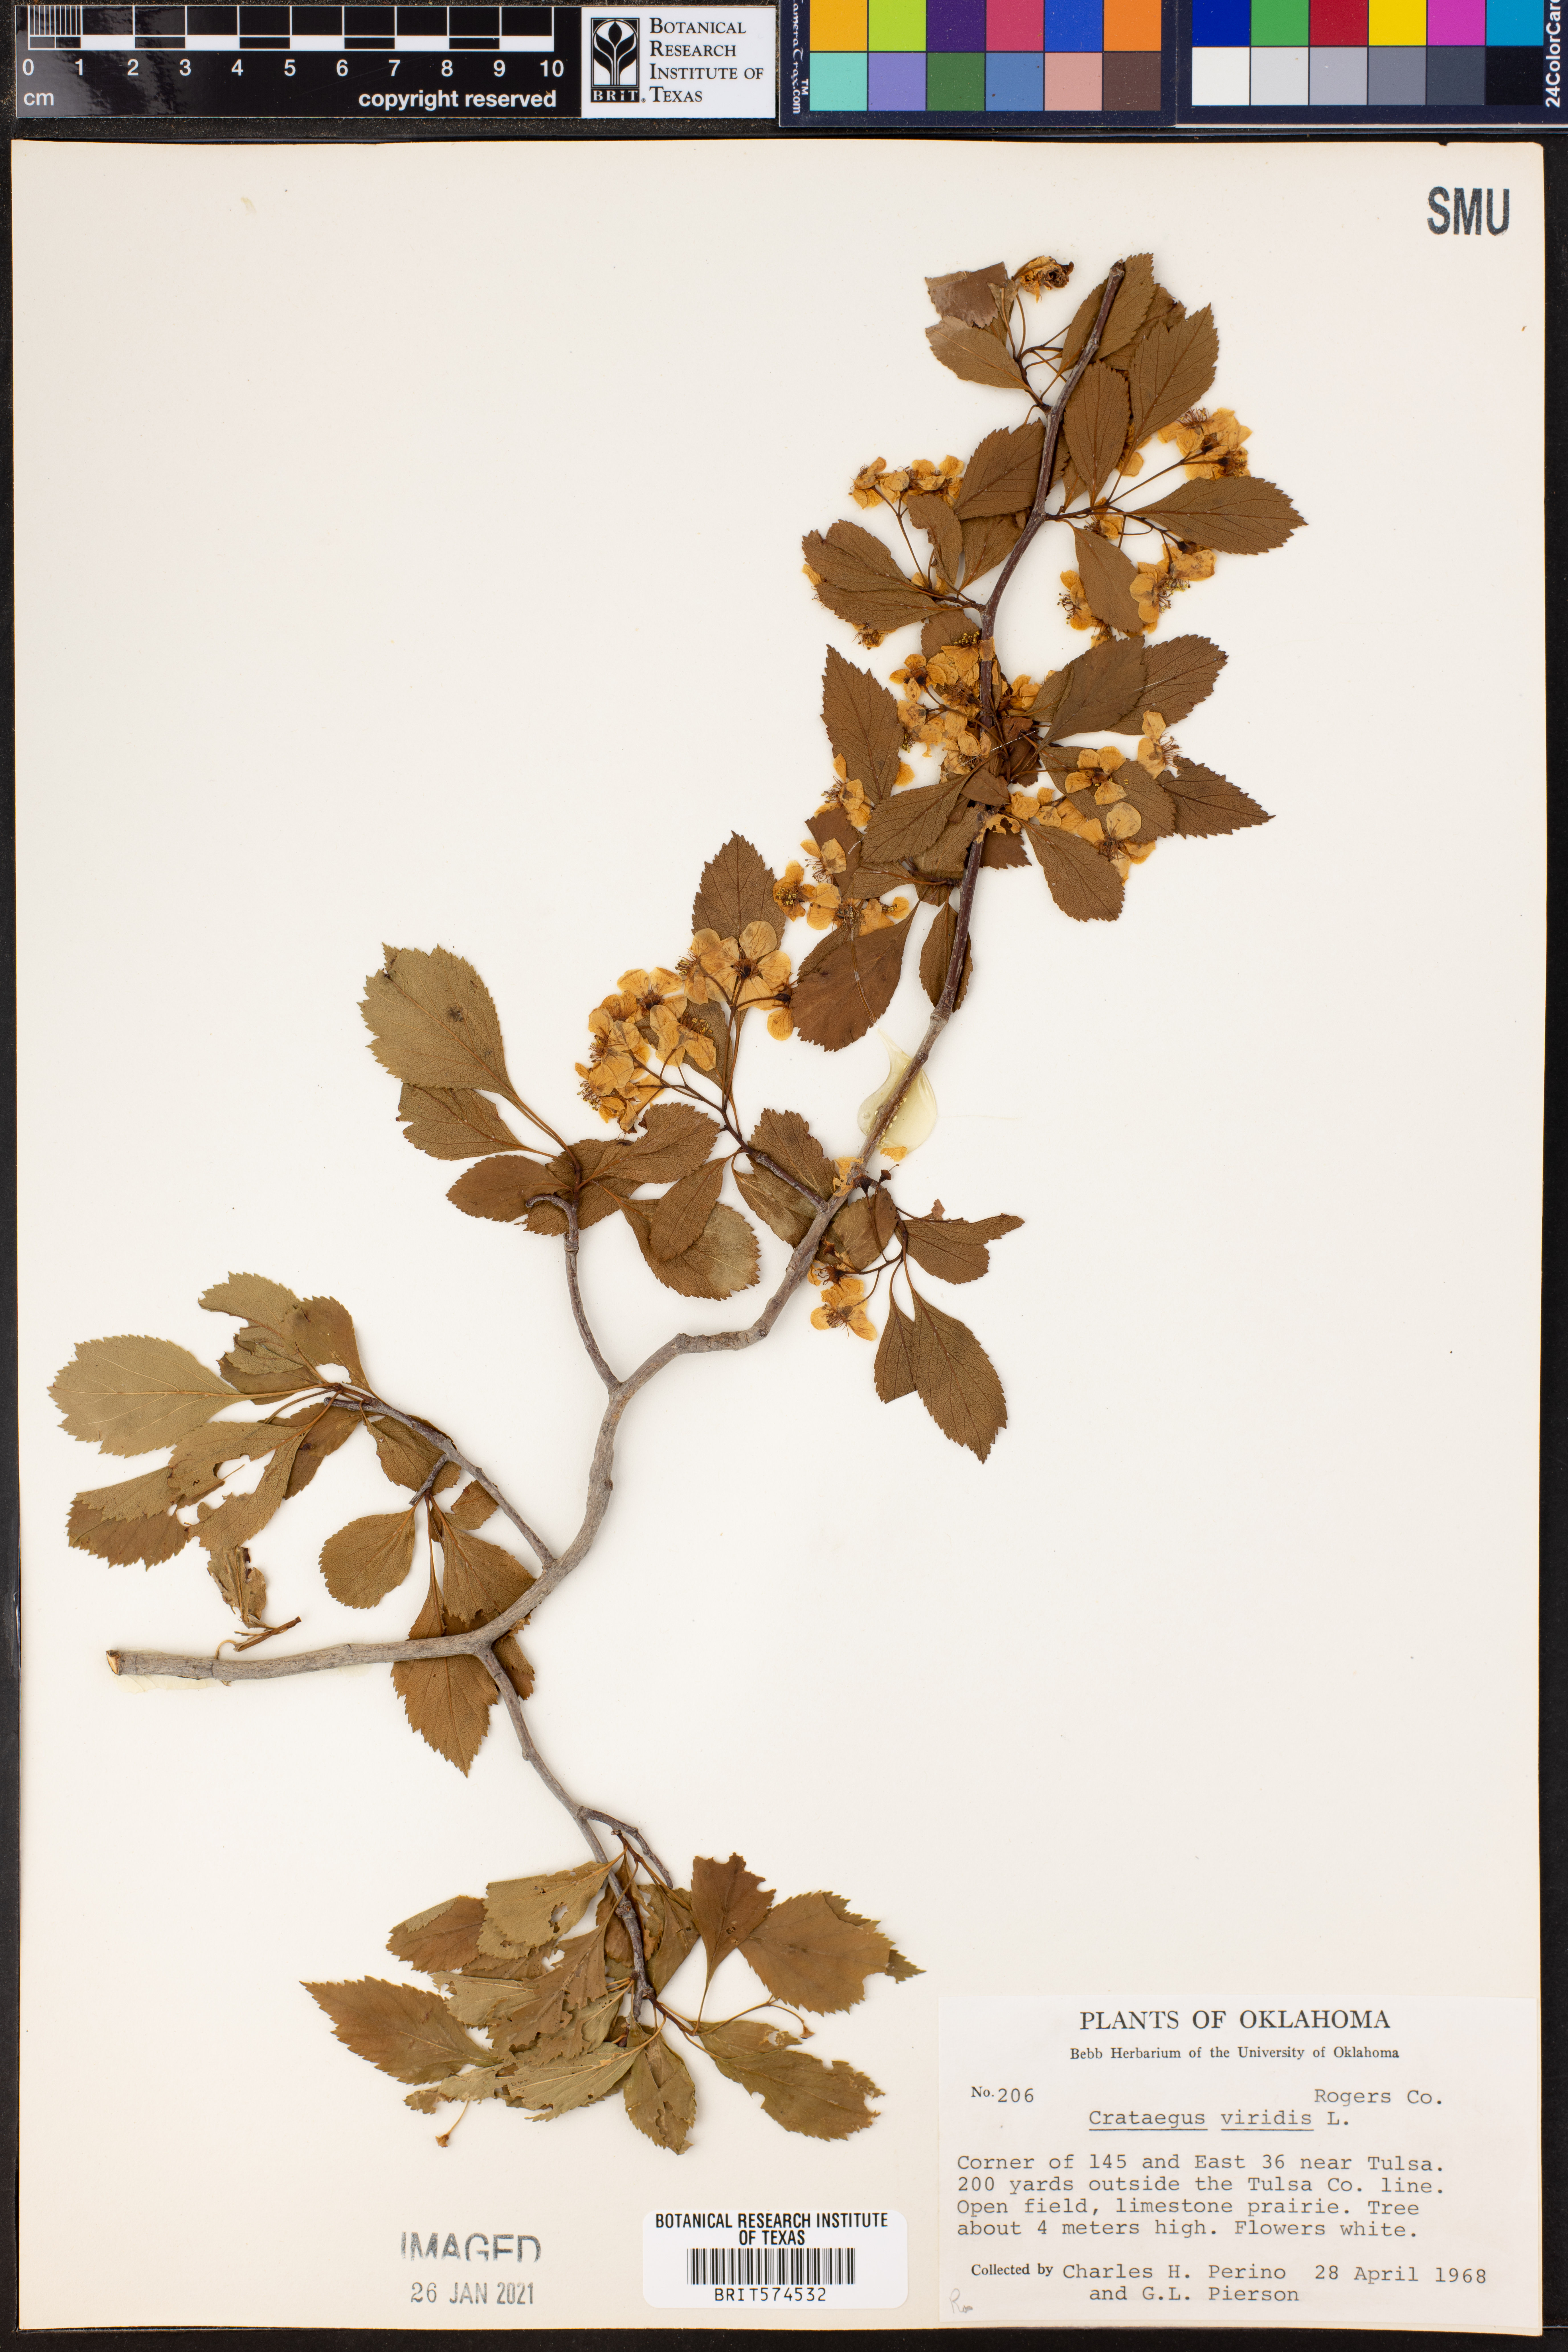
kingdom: Plantae
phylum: Tracheophyta
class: Magnoliopsida
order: Rosales
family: Rosaceae
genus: Crataegus
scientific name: Crataegus viridis
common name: Southernthorn
